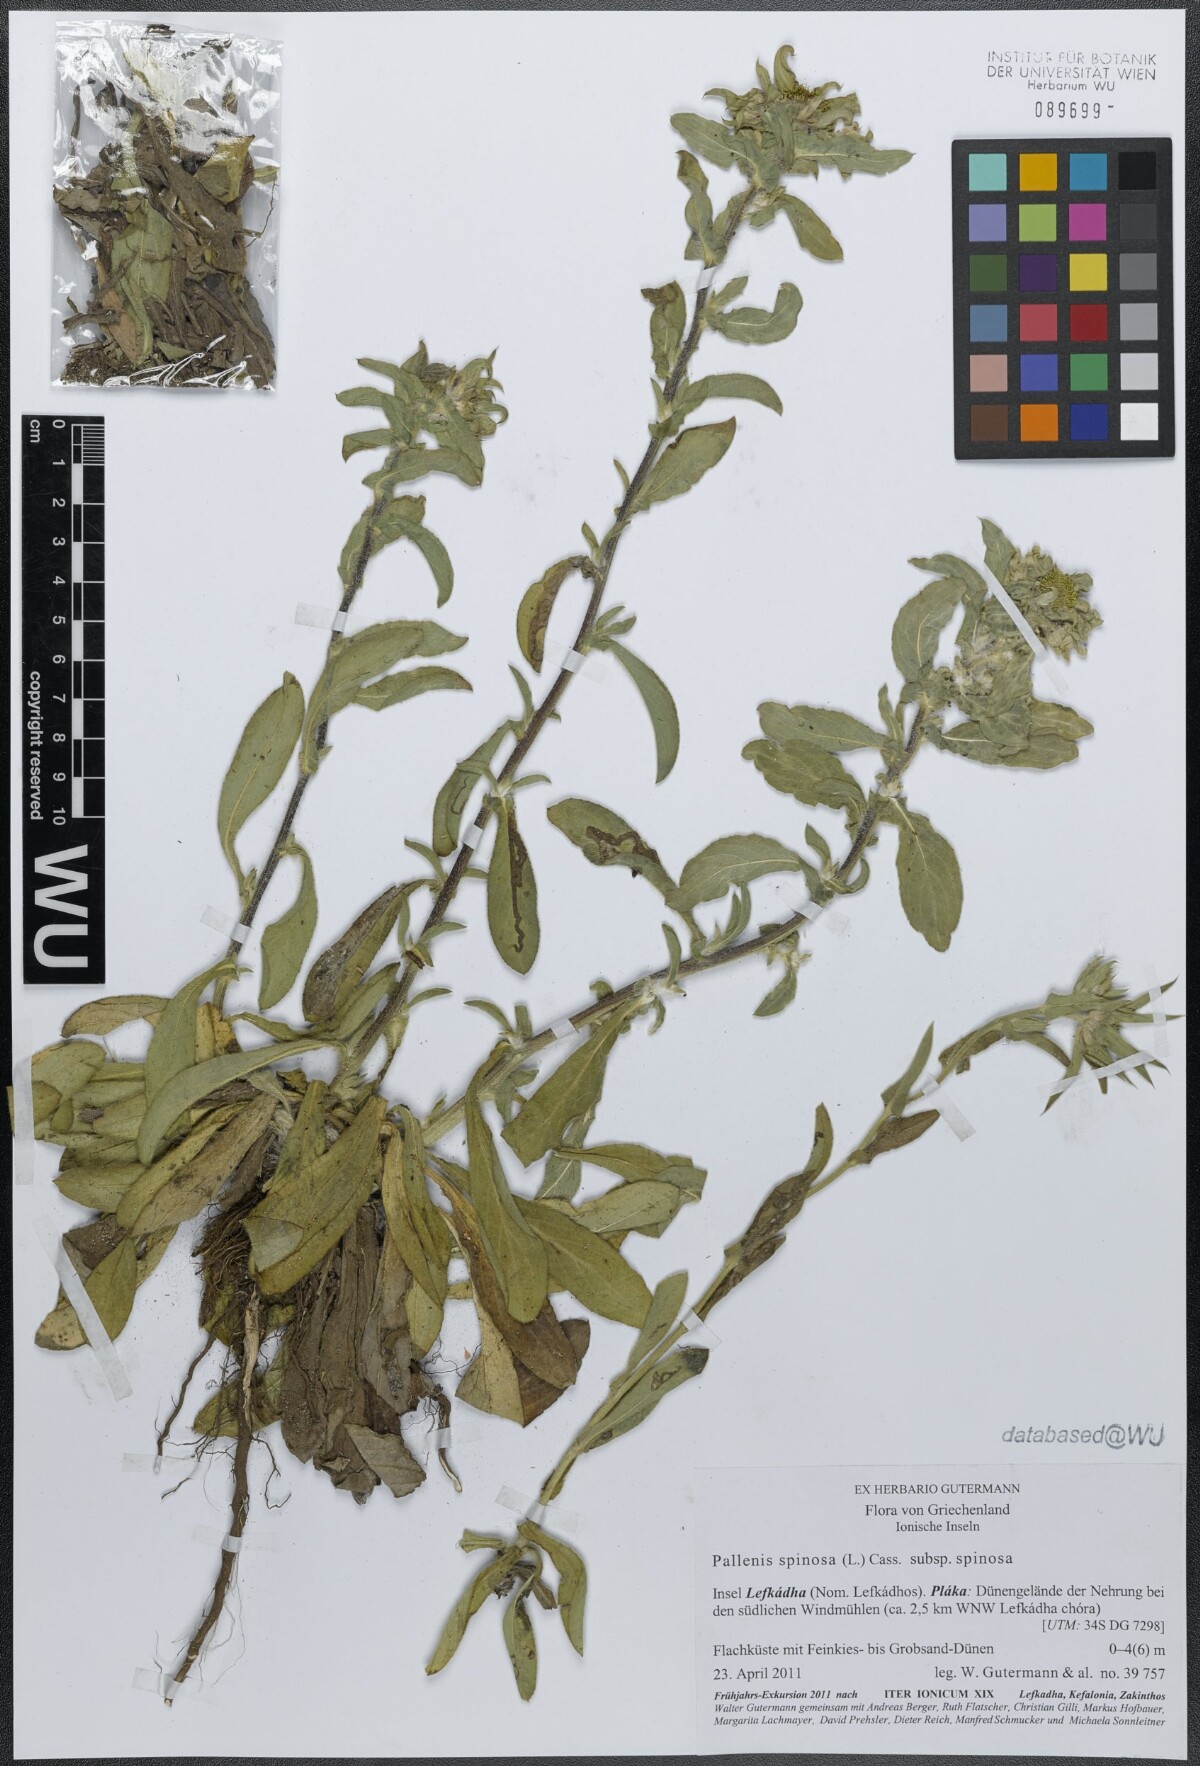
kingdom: Plantae
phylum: Tracheophyta
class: Magnoliopsida
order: Asterales
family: Asteraceae
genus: Pallenis
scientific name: Pallenis spinosa
